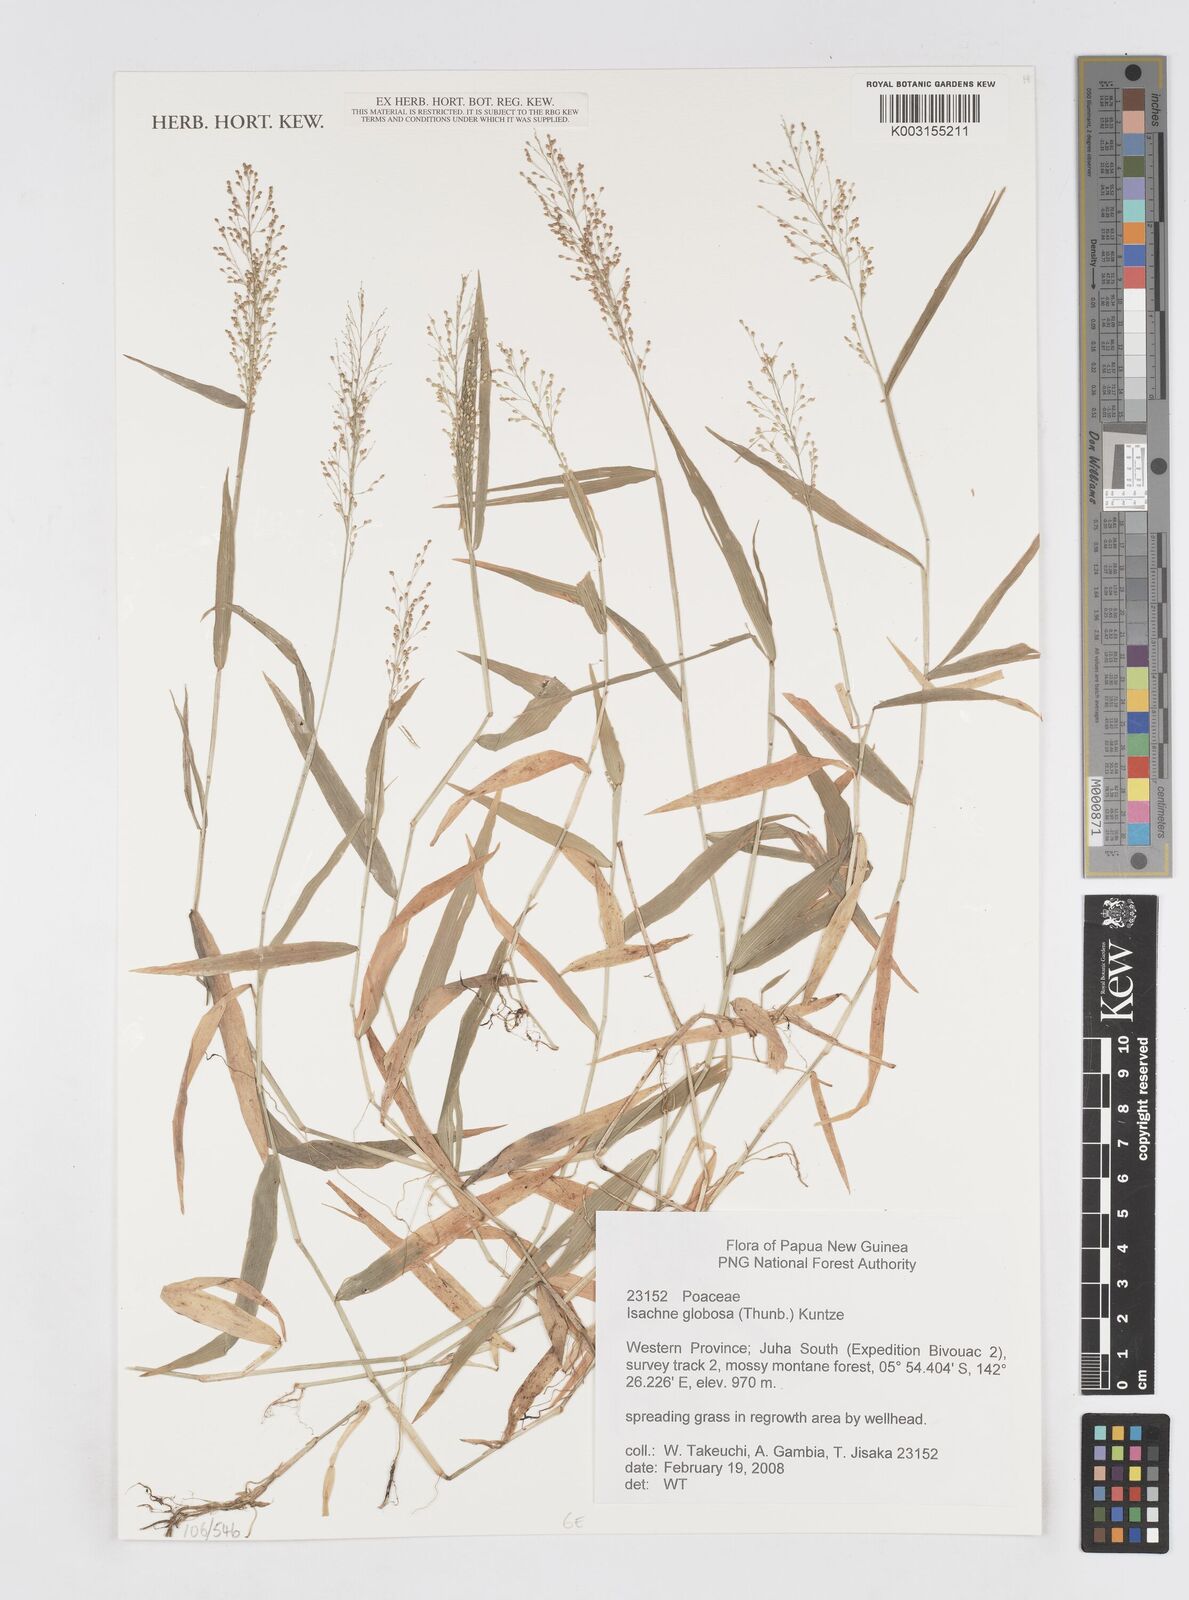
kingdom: Plantae
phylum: Tracheophyta
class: Liliopsida
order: Poales
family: Poaceae
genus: Isachne
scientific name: Isachne globosa
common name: Swamp millet
